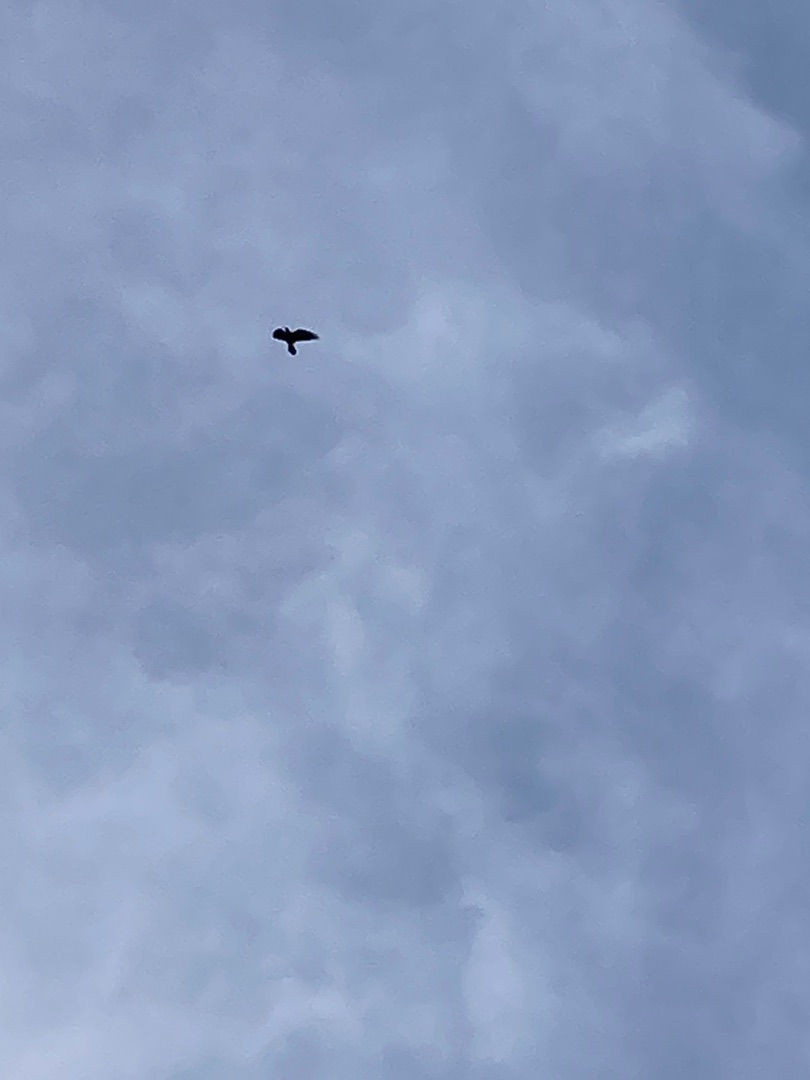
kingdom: Animalia
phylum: Chordata
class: Aves
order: Passeriformes
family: Corvidae
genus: Corvus
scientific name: Corvus corax
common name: Ravn
